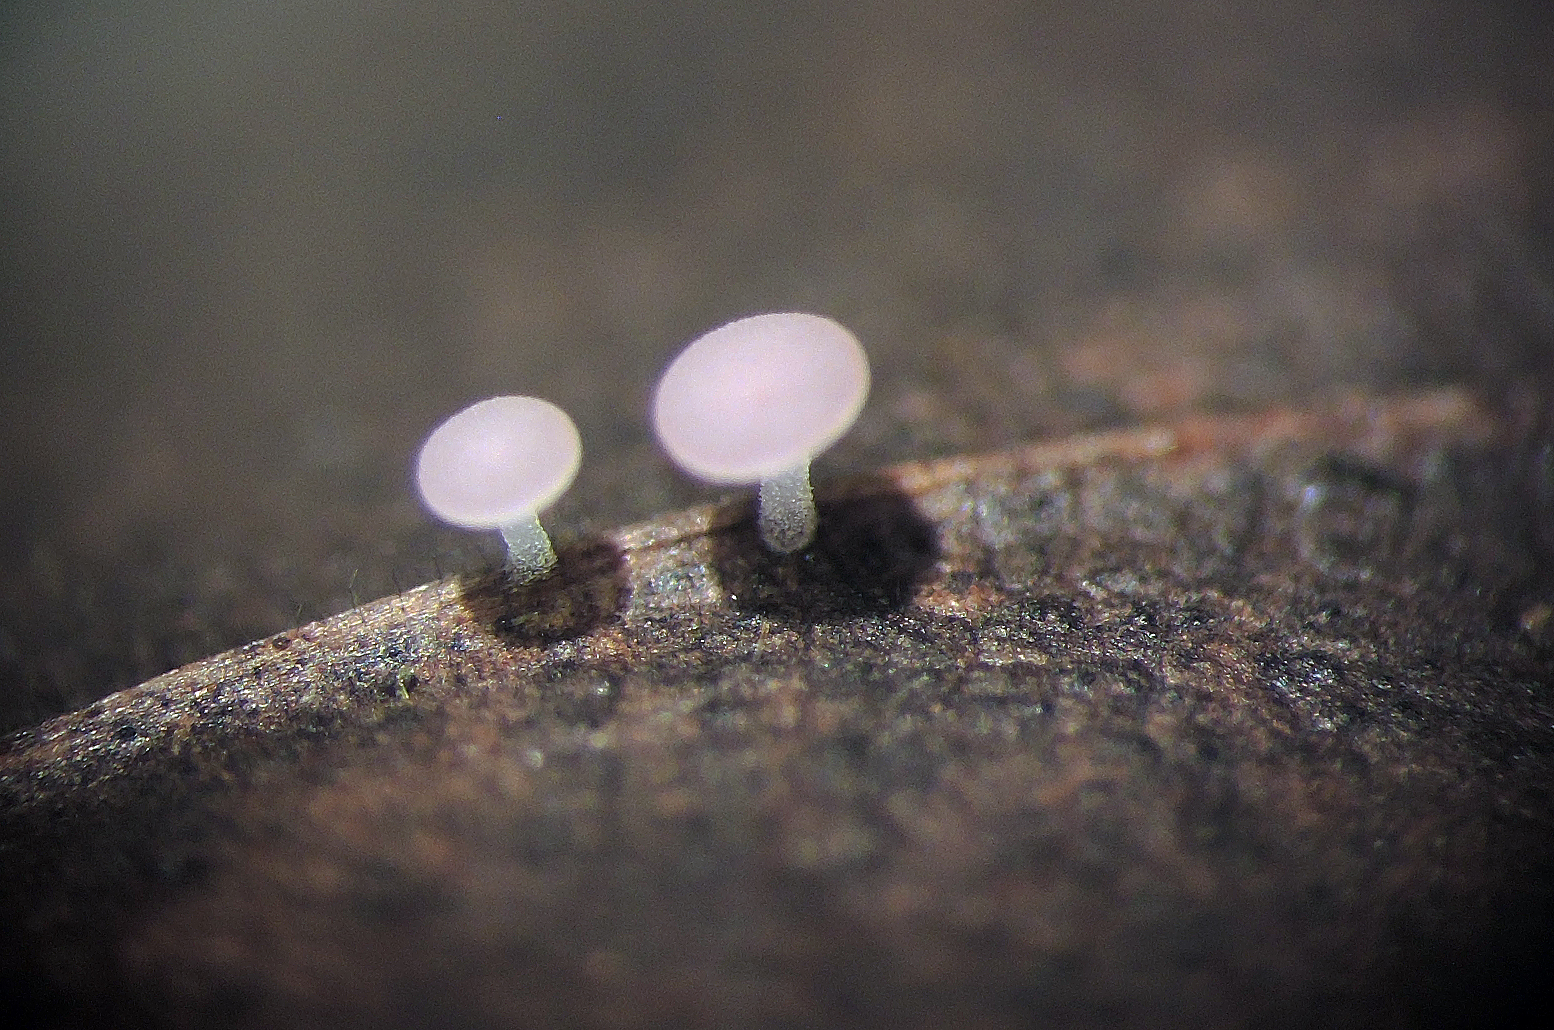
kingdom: Fungi
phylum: Ascomycota
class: Leotiomycetes
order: Helotiales
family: Helotiaceae
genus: Hymenoscyphus
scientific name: Hymenoscyphus syringicolor
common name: lyslilla stilkskive
